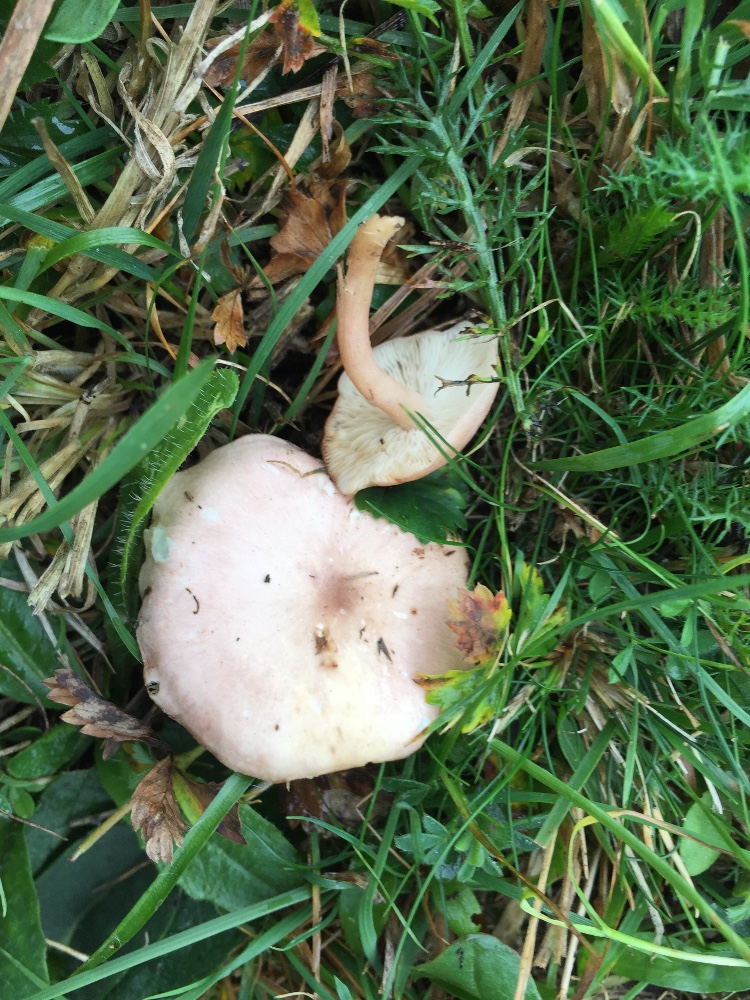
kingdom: Fungi
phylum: Basidiomycota
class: Agaricomycetes
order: Agaricales
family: Lyophyllaceae
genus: Calocybe
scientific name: Calocybe carnea
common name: rosa fagerhat
